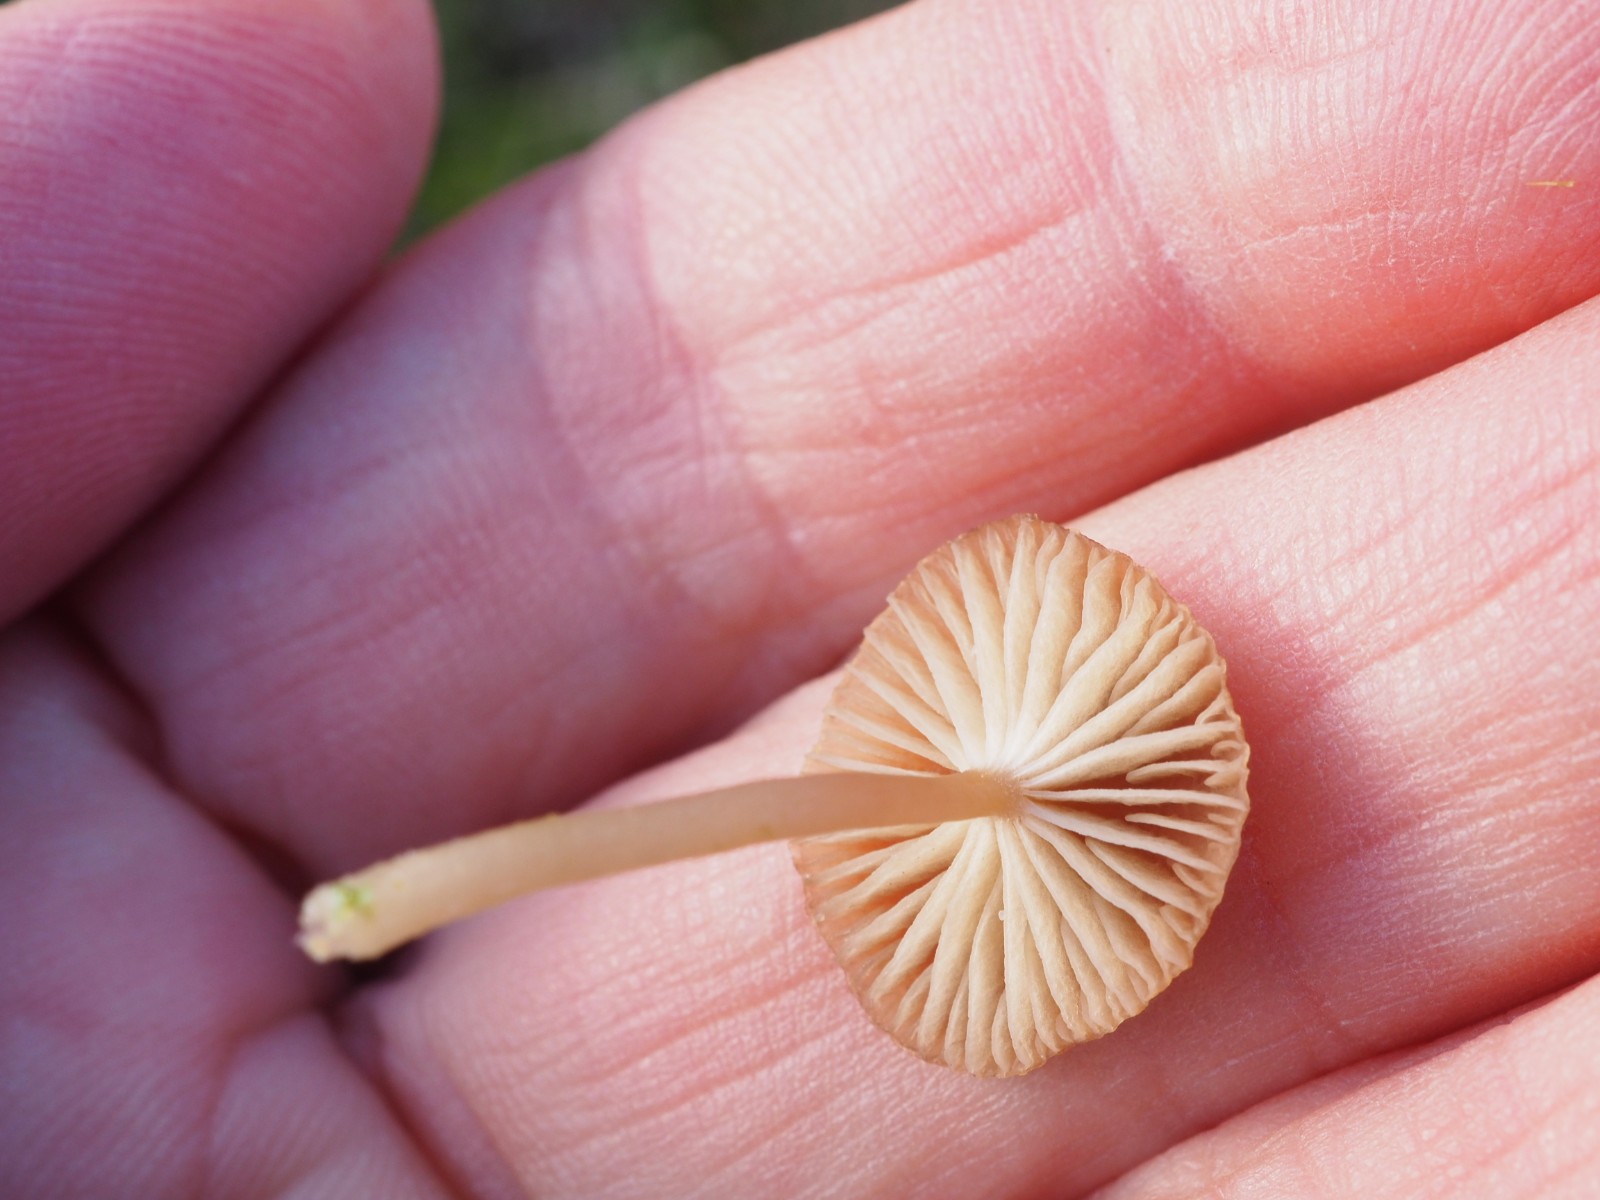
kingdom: Fungi
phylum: Basidiomycota
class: Agaricomycetes
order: Agaricales
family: Tricholomataceae
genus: Gamundia
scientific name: Gamundia xerophila
